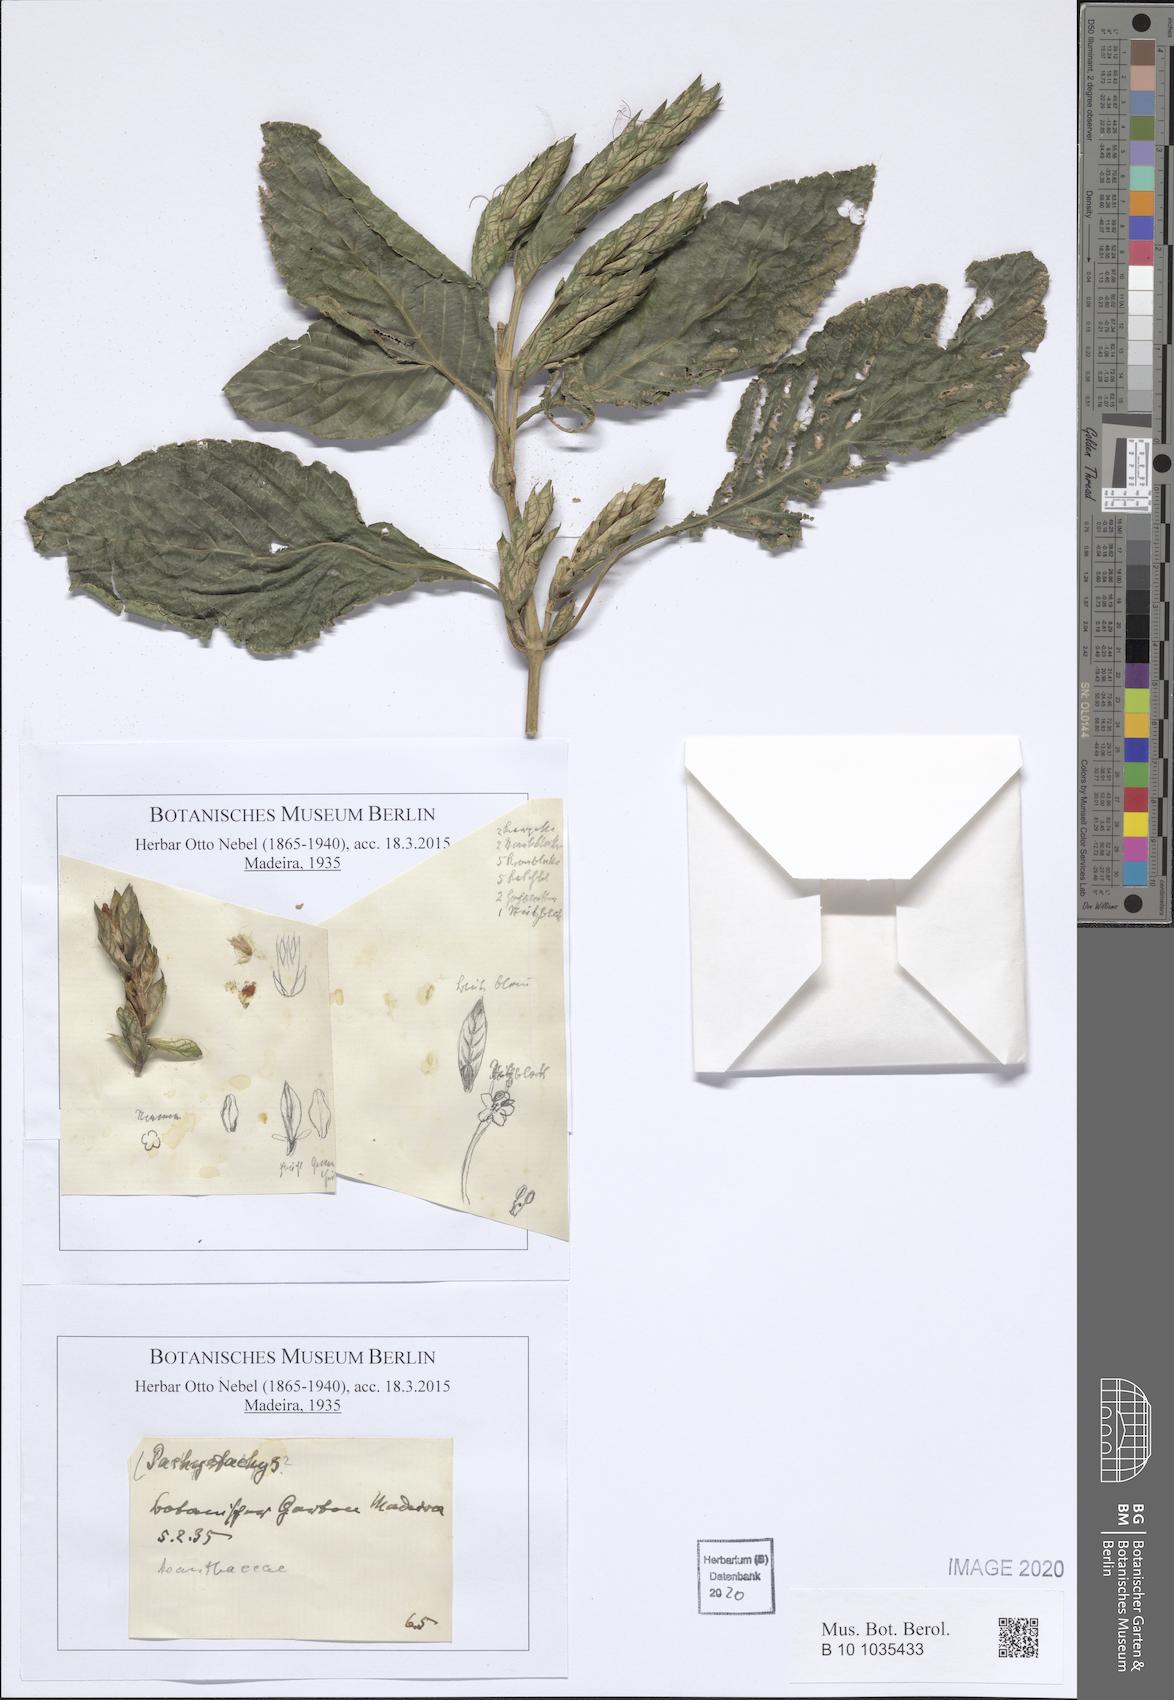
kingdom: Plantae
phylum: Tracheophyta
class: Magnoliopsida
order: Lamiales
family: Acanthaceae
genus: Pachystachys
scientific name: Pachystachys
